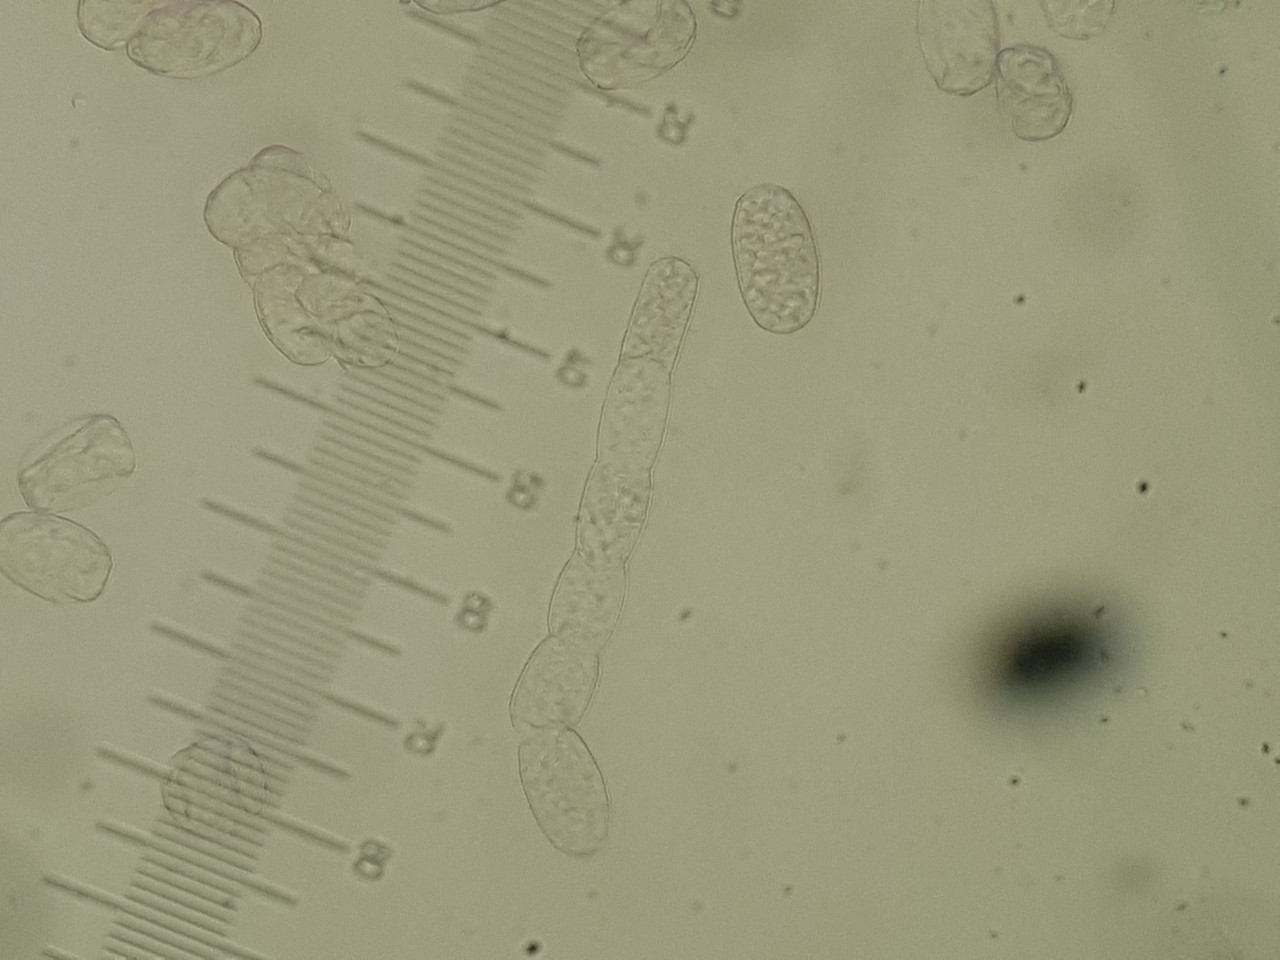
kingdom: Fungi
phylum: Ascomycota
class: Leotiomycetes
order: Helotiales
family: Erysiphaceae
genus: Podosphaera
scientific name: Podosphaera clandestina
